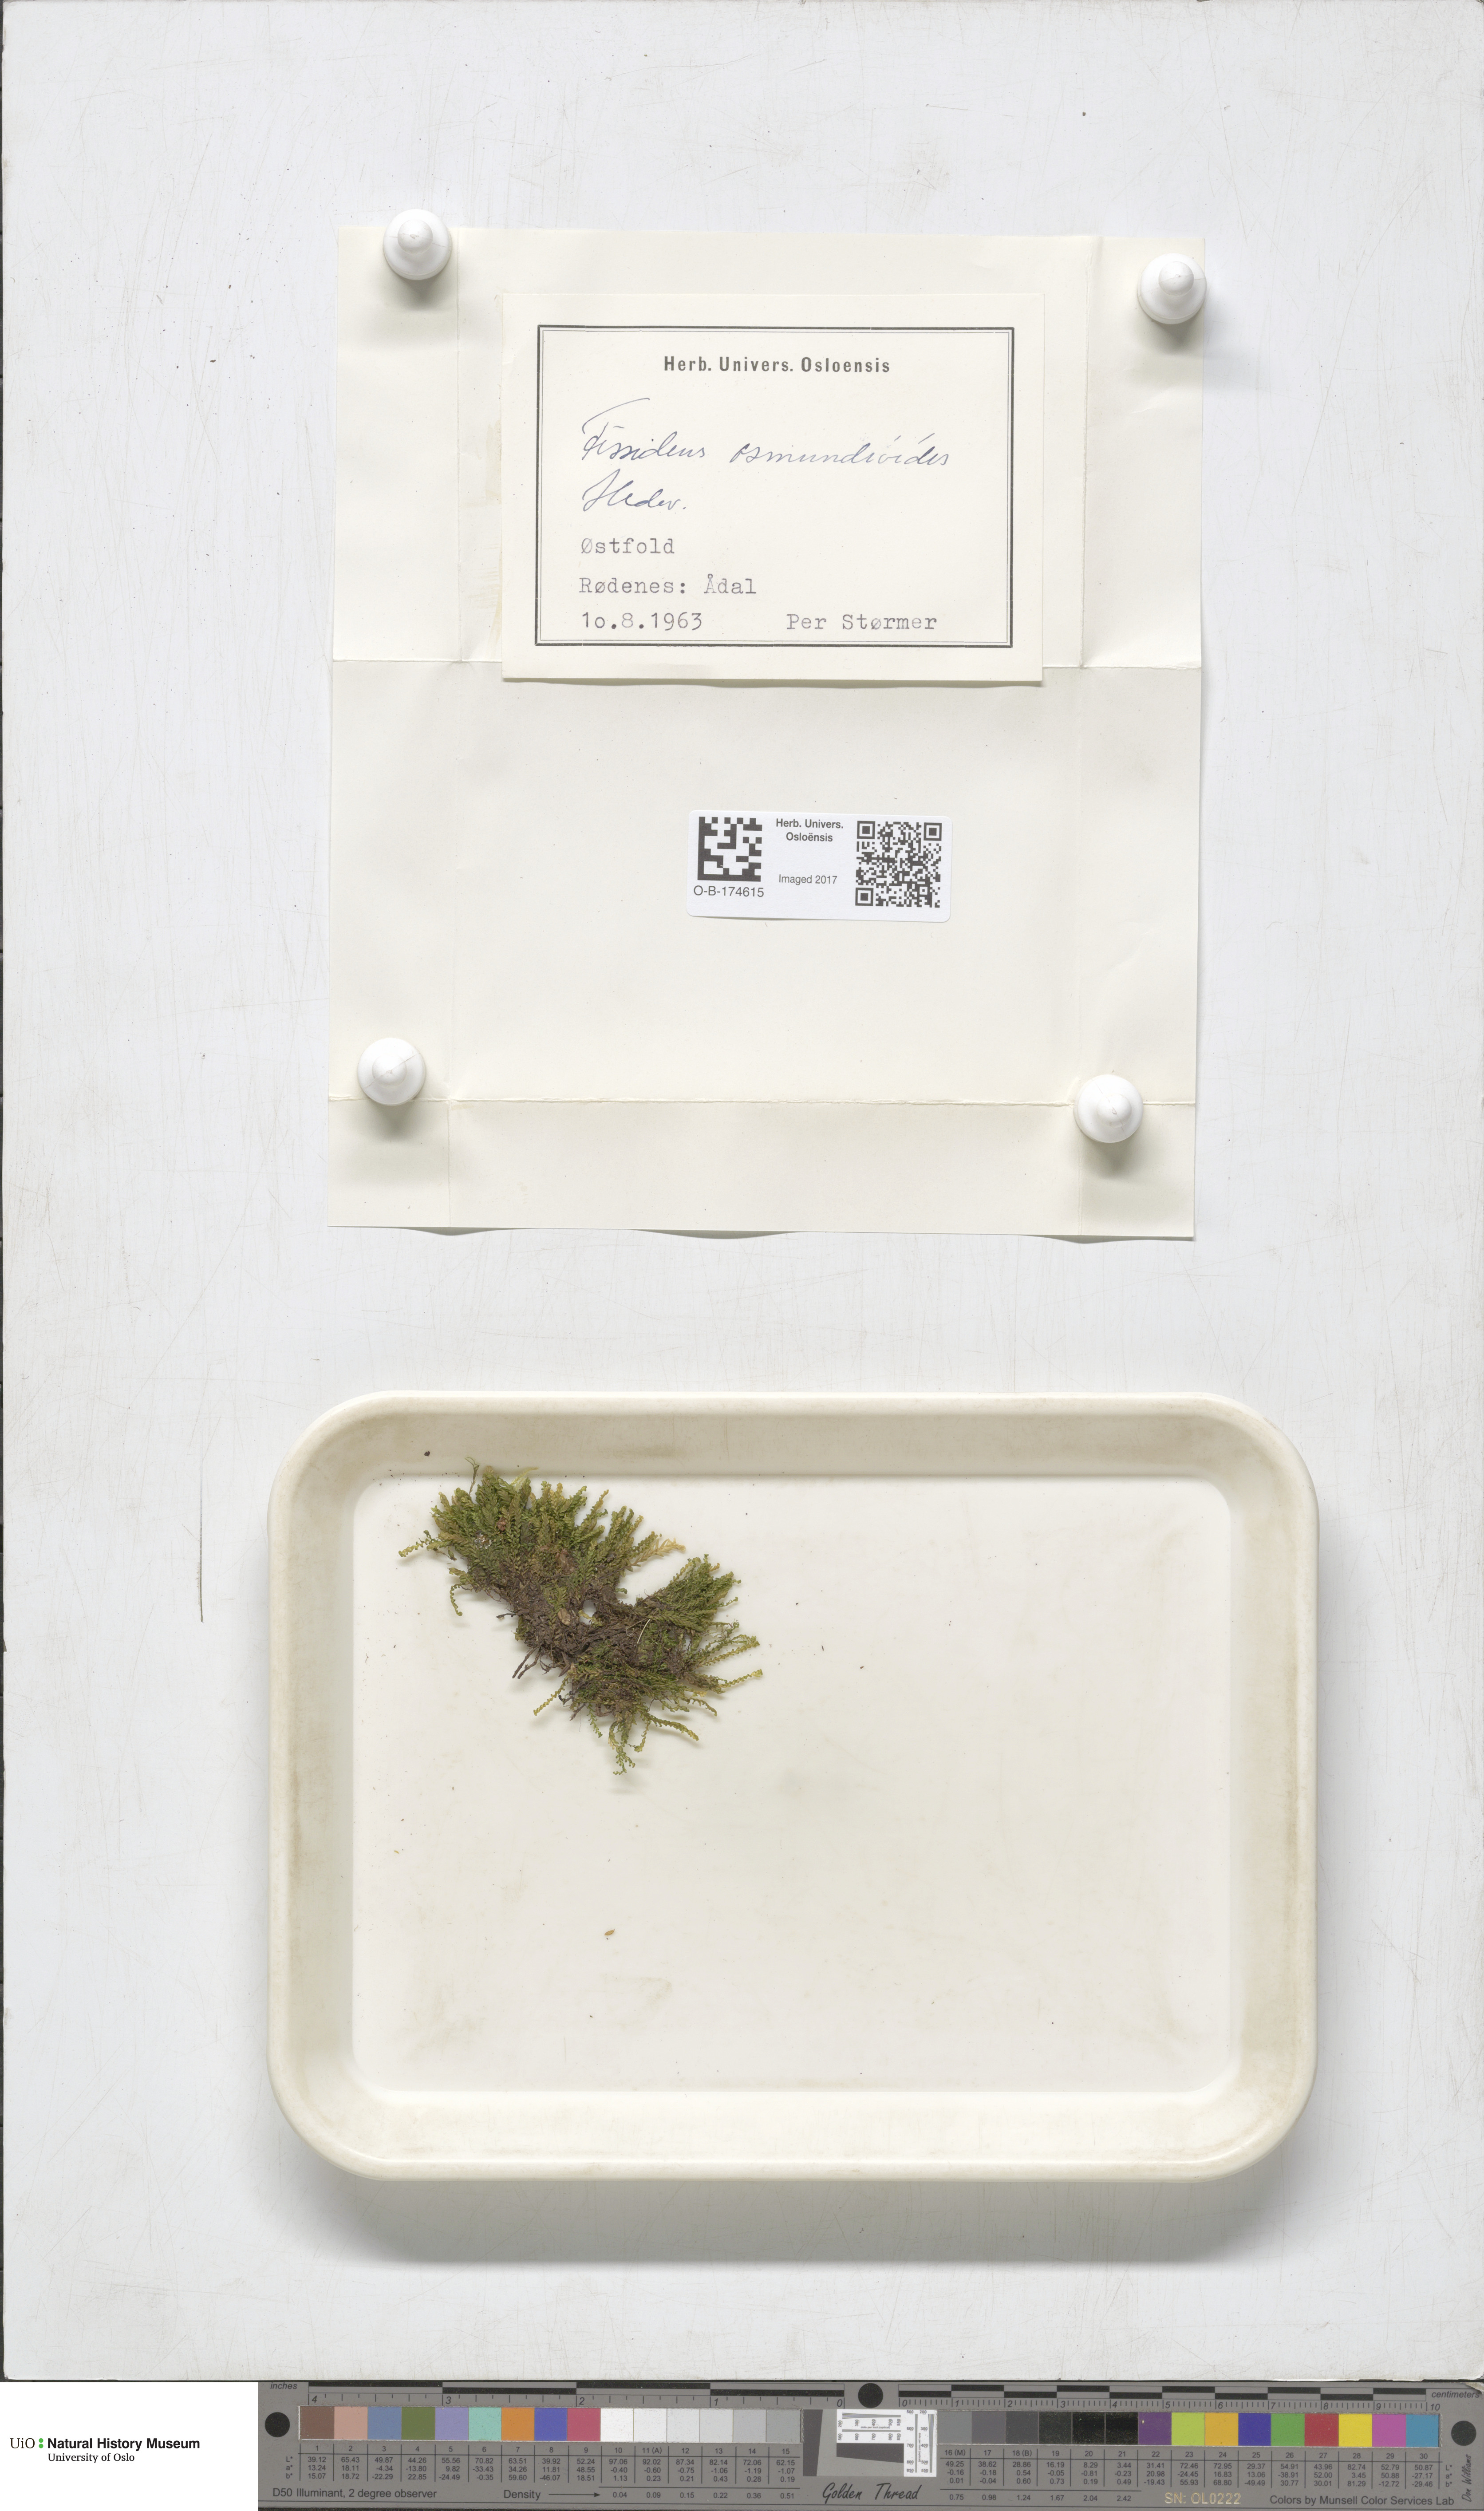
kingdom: Plantae
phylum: Bryophyta
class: Bryopsida
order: Dicranales
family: Fissidentaceae
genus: Fissidens
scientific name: Fissidens osmundoides
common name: Purple-stalked pocket moss
